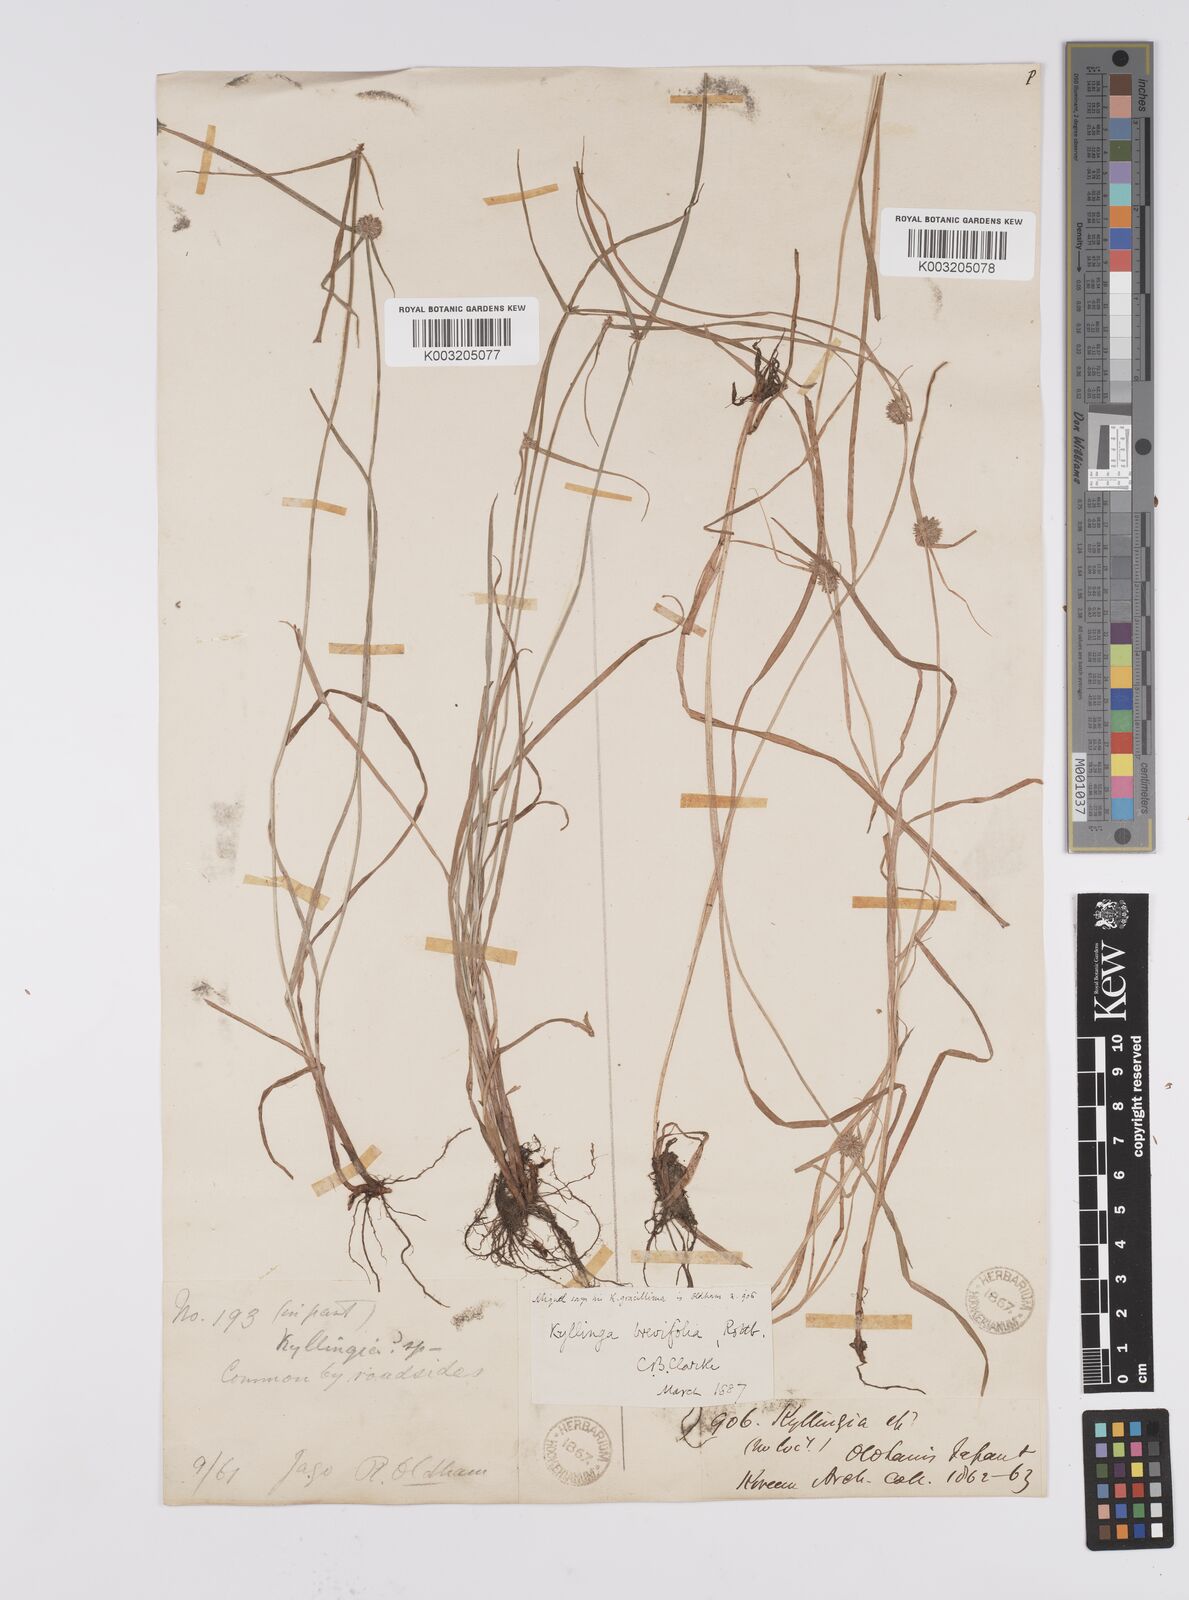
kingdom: Plantae
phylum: Tracheophyta
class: Liliopsida
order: Poales
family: Cyperaceae
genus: Cyperus
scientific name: Cyperus brevifolius
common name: Globe kyllinga
